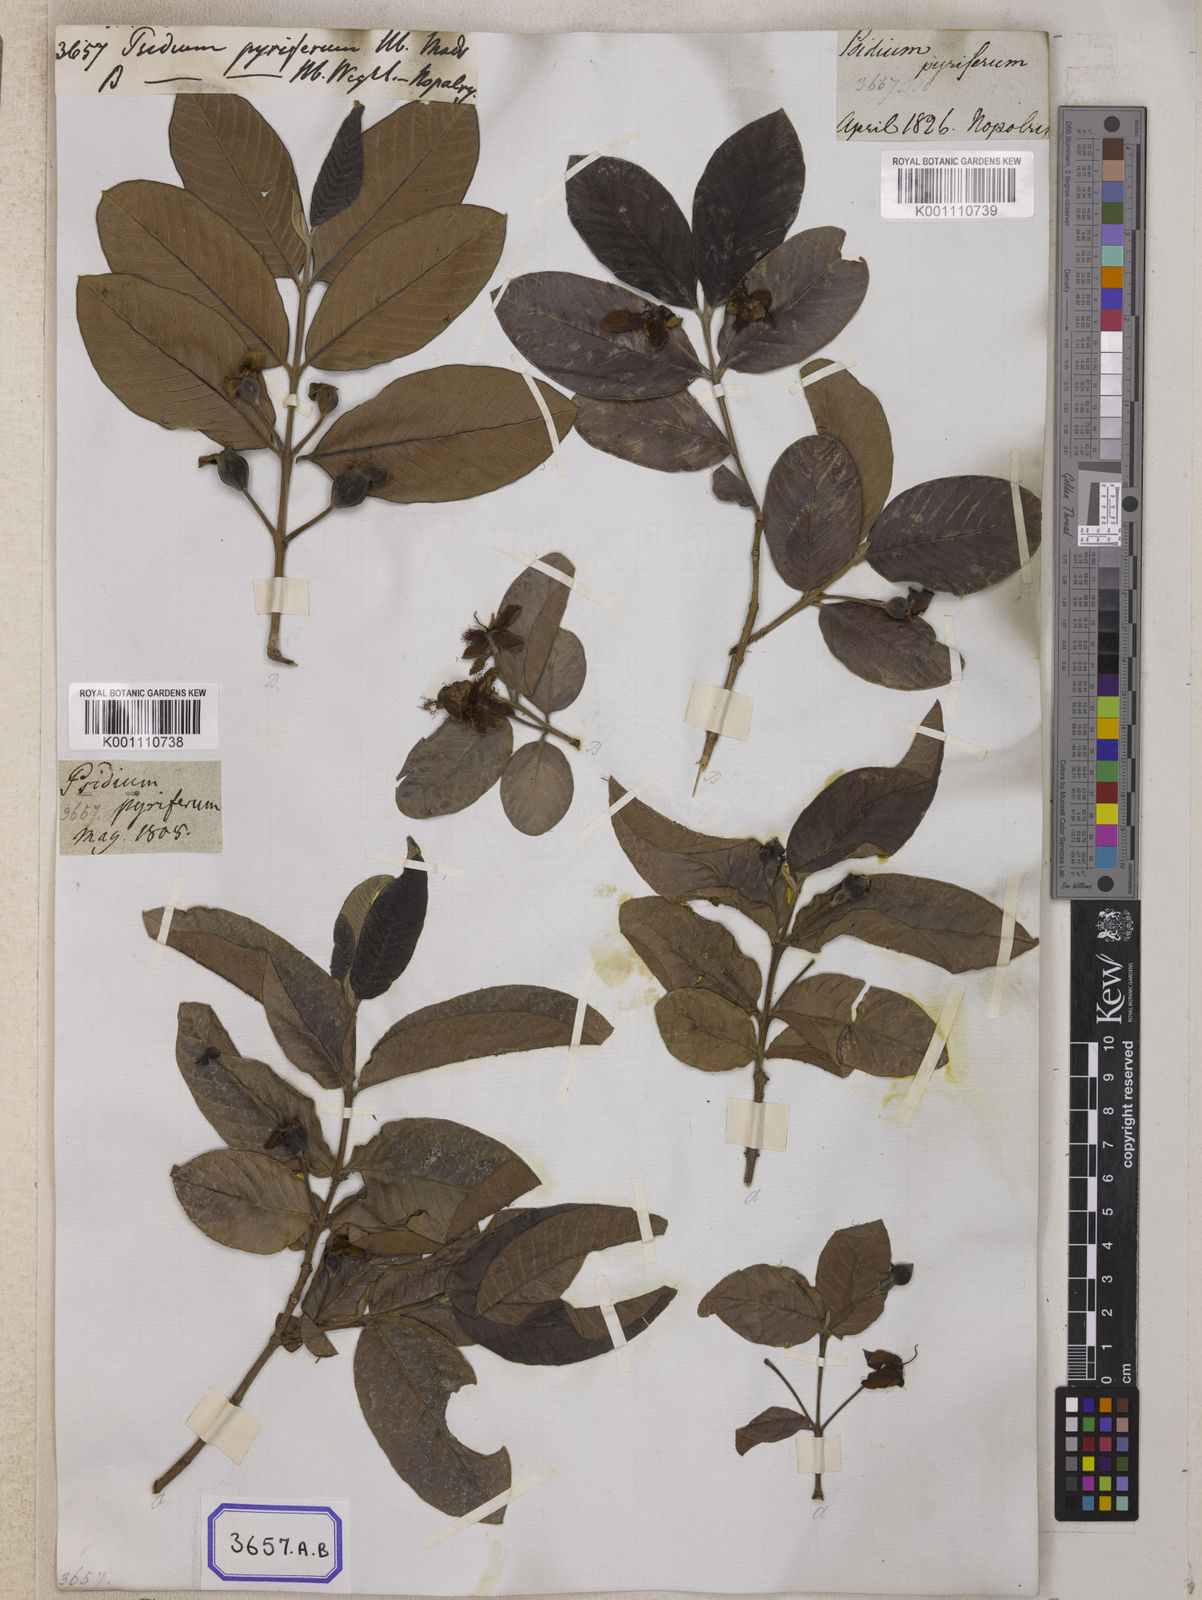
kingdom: Plantae
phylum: Tracheophyta
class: Magnoliopsida
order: Myrtales
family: Myrtaceae
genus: Psidium
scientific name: Psidium guajava
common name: Guava
